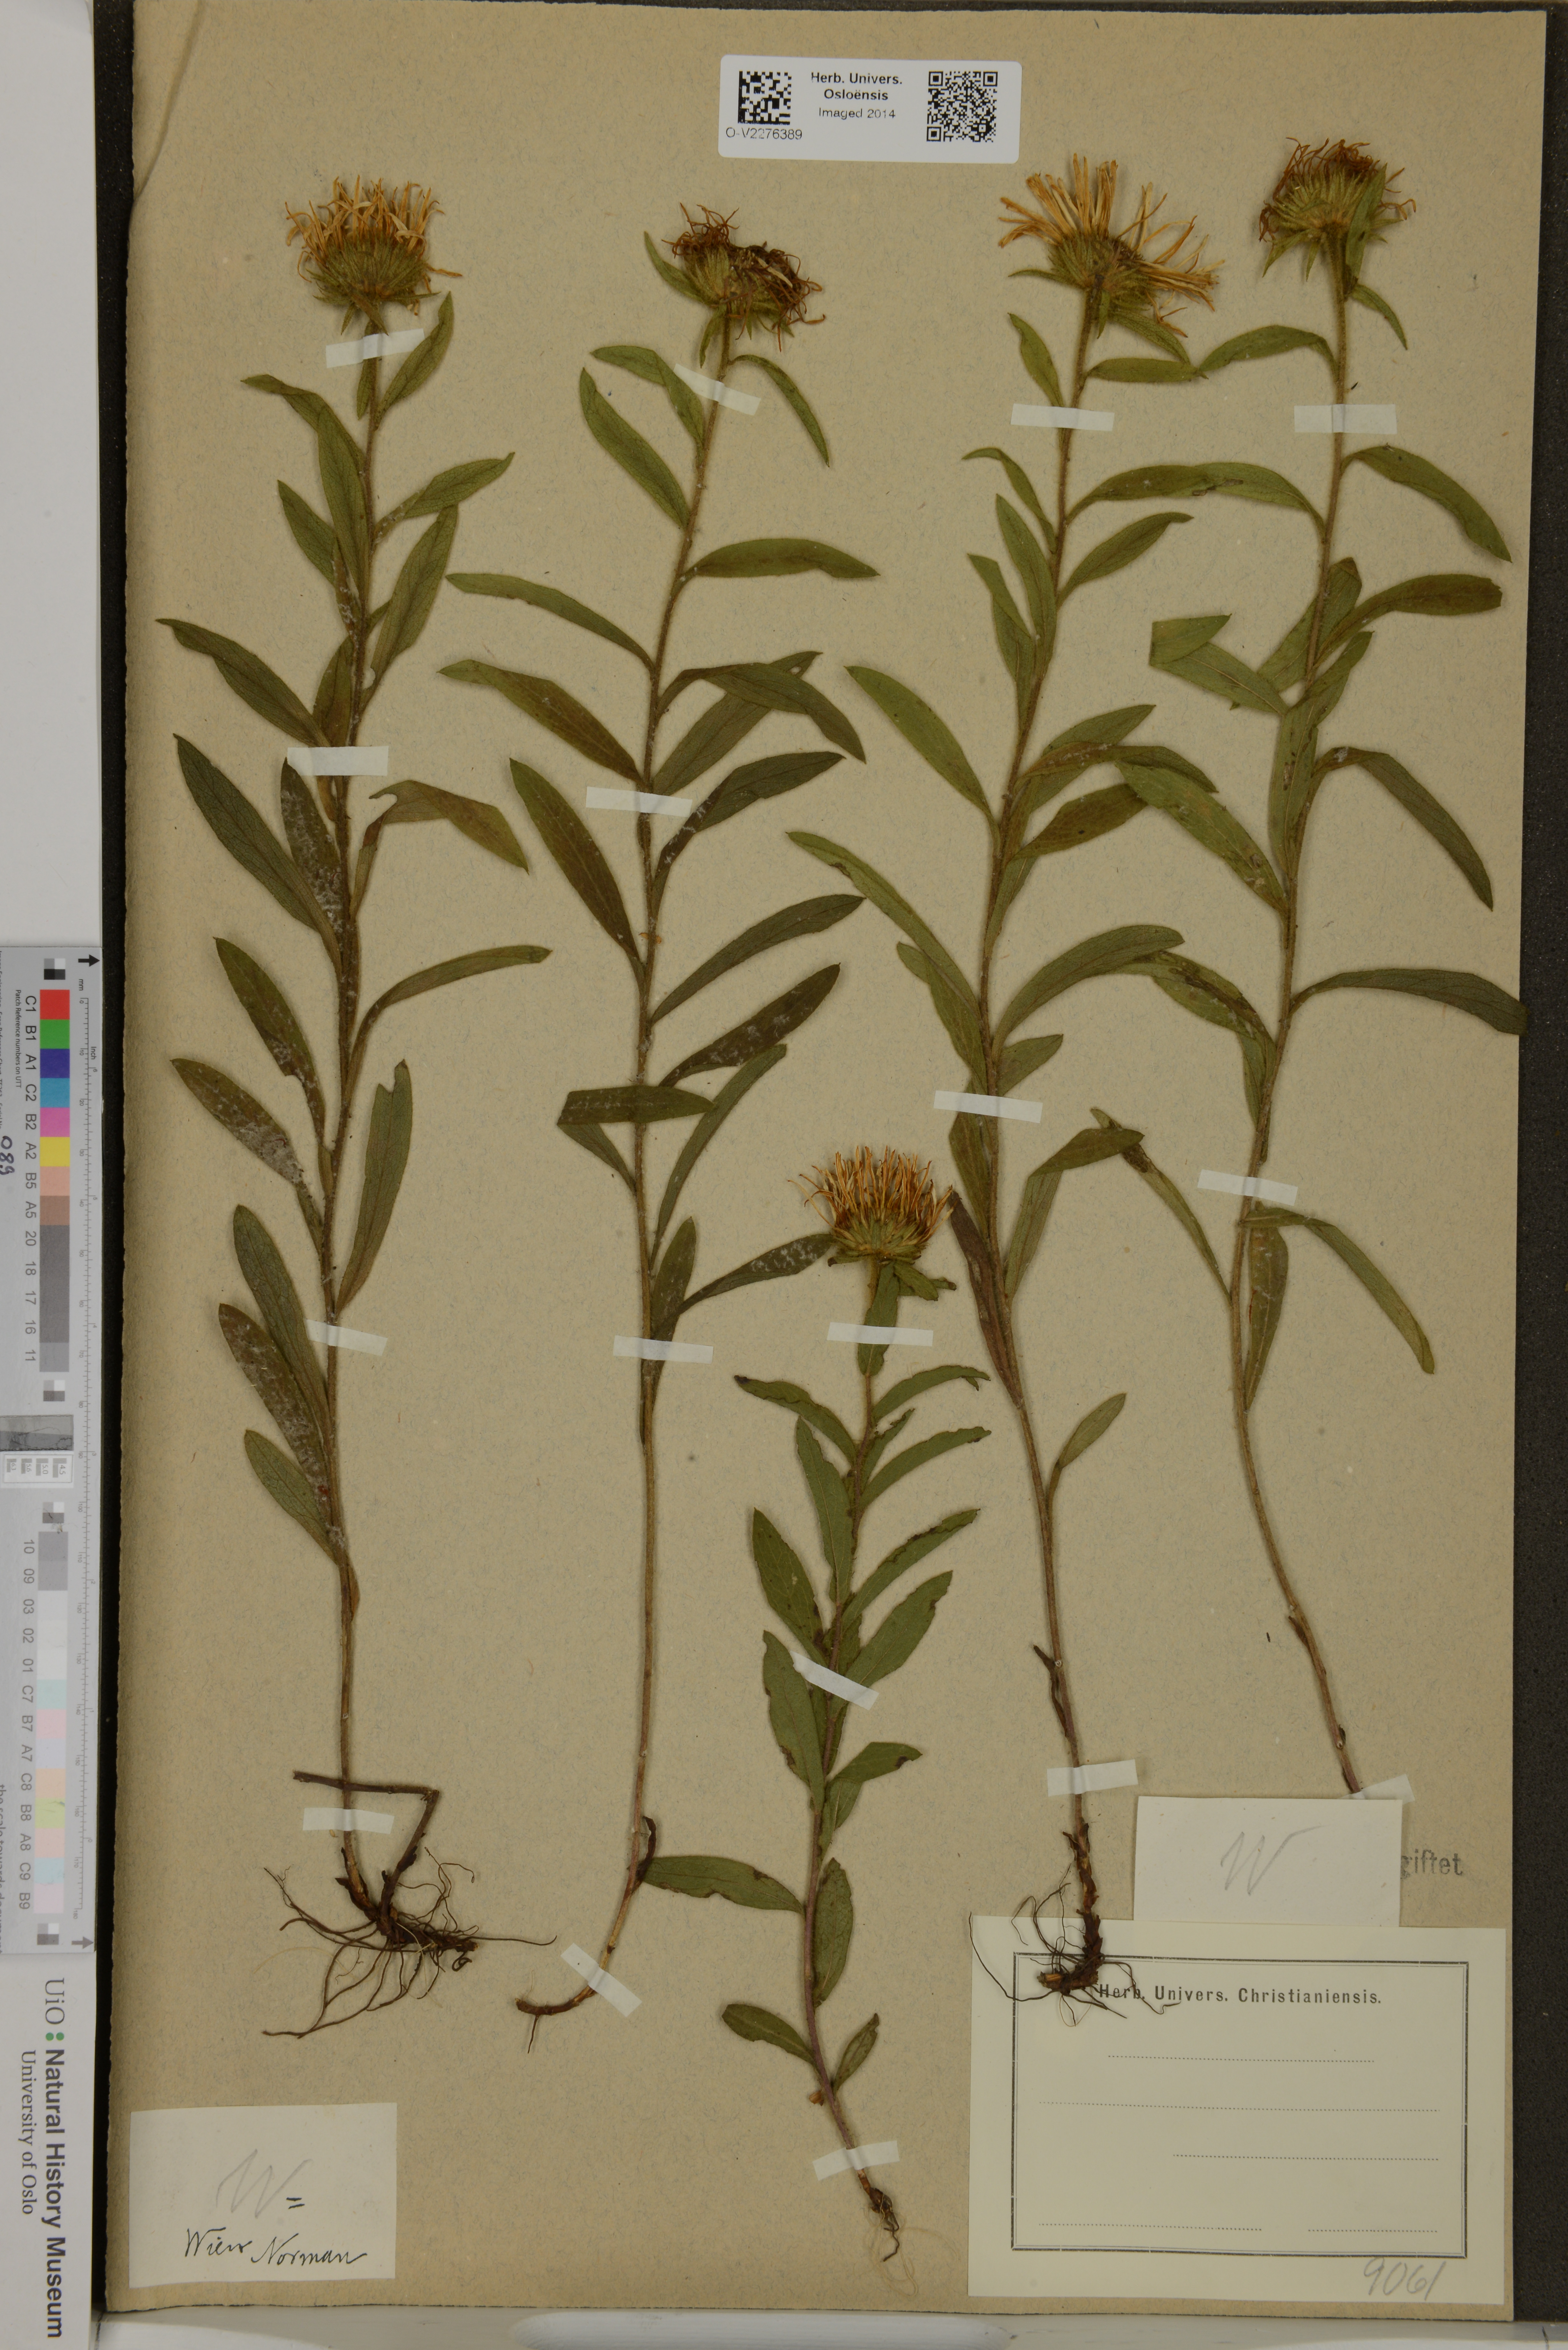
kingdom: Plantae
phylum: Tracheophyta
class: Magnoliopsida
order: Asterales
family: Asteraceae
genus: Inula
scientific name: Inula
